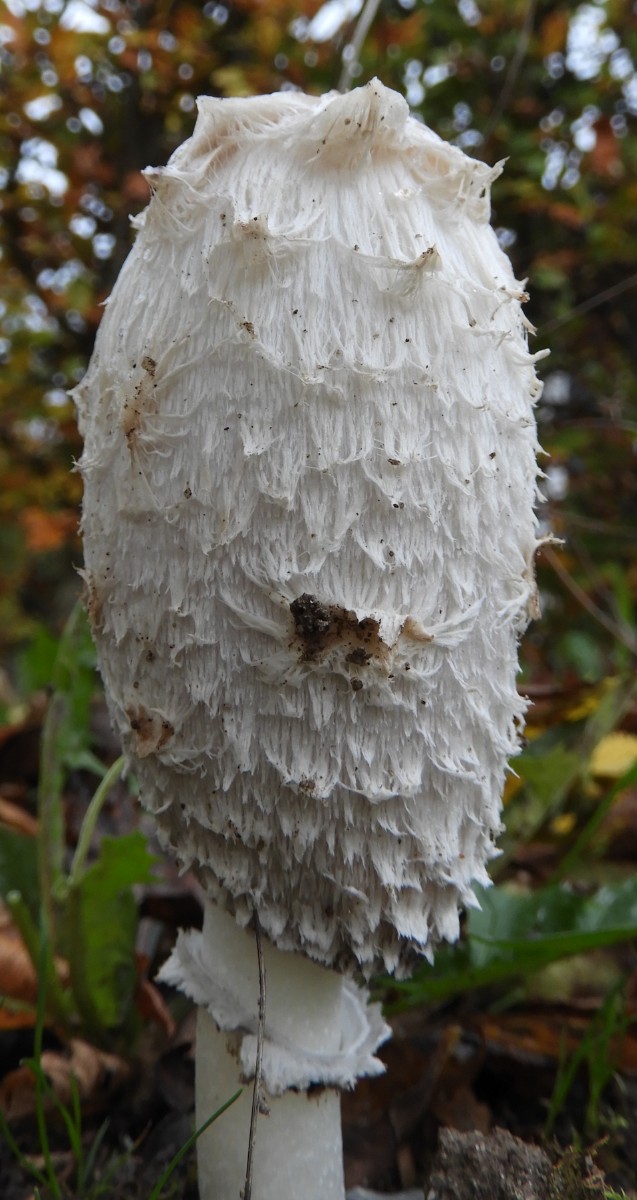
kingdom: Fungi
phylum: Basidiomycota
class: Agaricomycetes
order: Agaricales
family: Agaricaceae
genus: Coprinus
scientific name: Coprinus comatus
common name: stor parykhat
